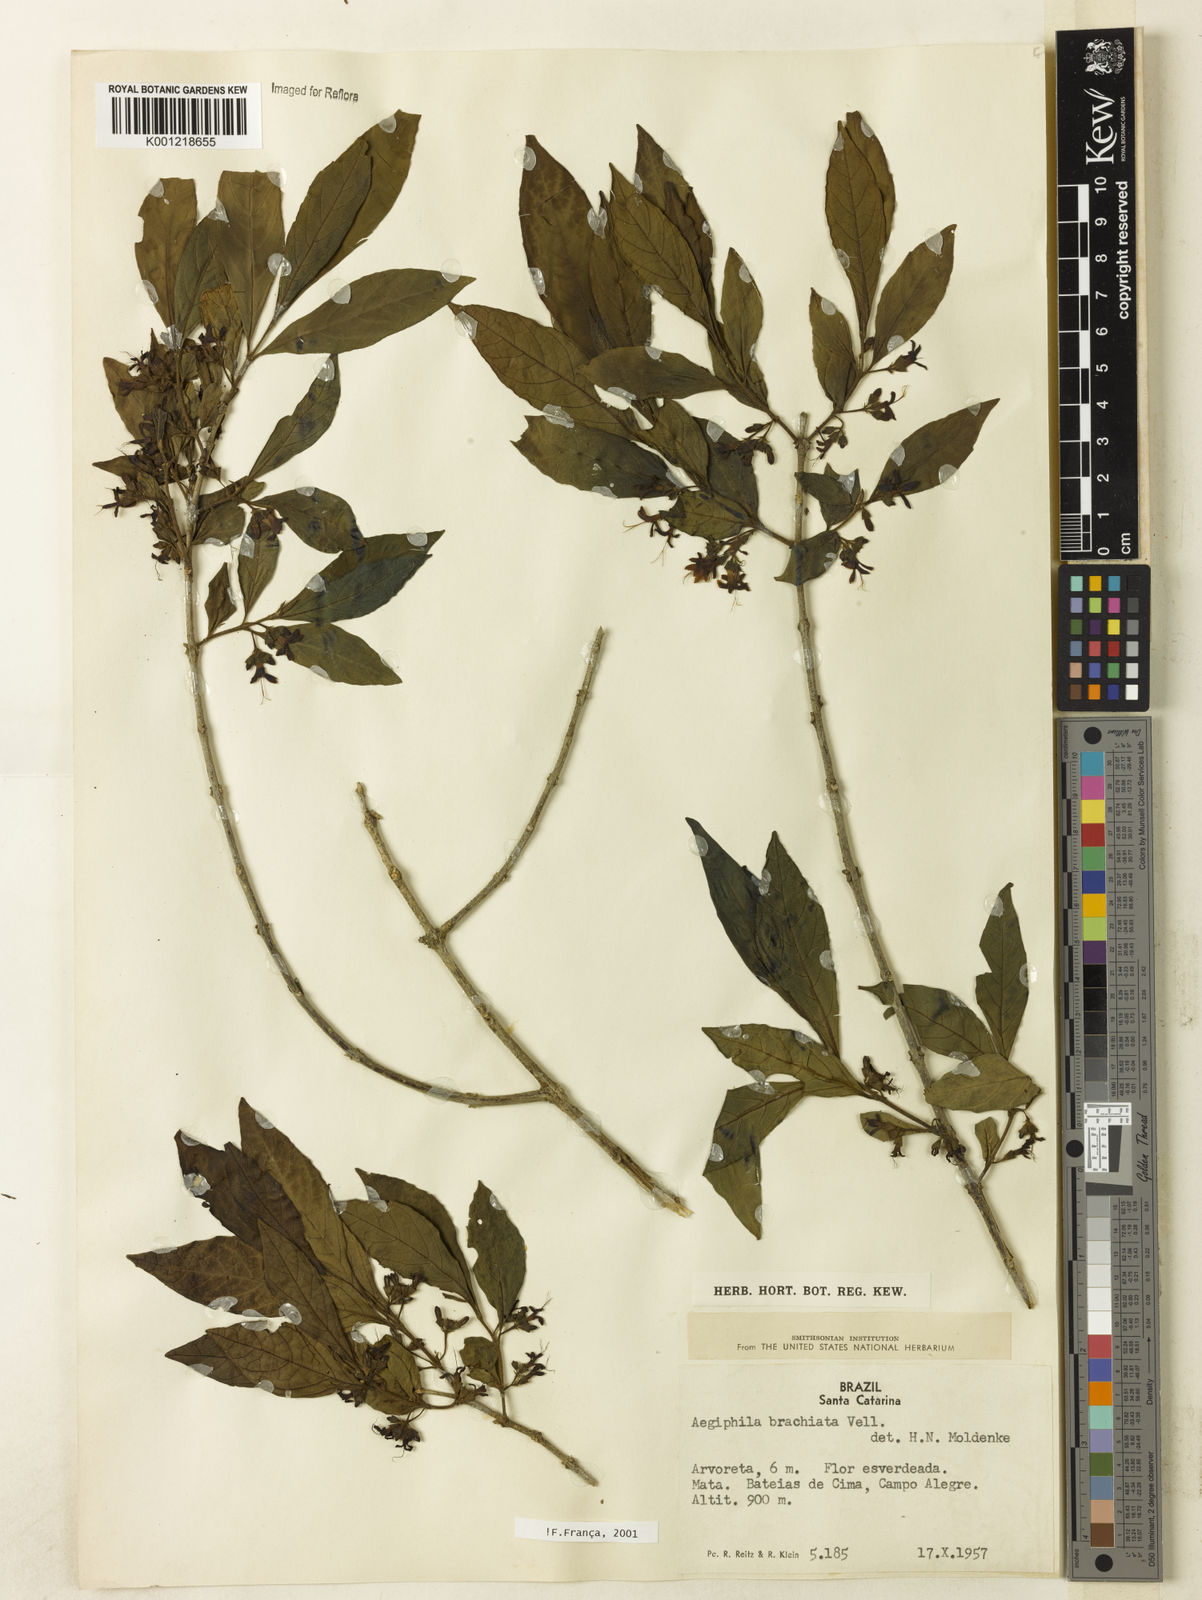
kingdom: Plantae
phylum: Tracheophyta
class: Magnoliopsida
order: Lamiales
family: Lamiaceae
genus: Aegiphila
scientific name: Aegiphila brachiata
